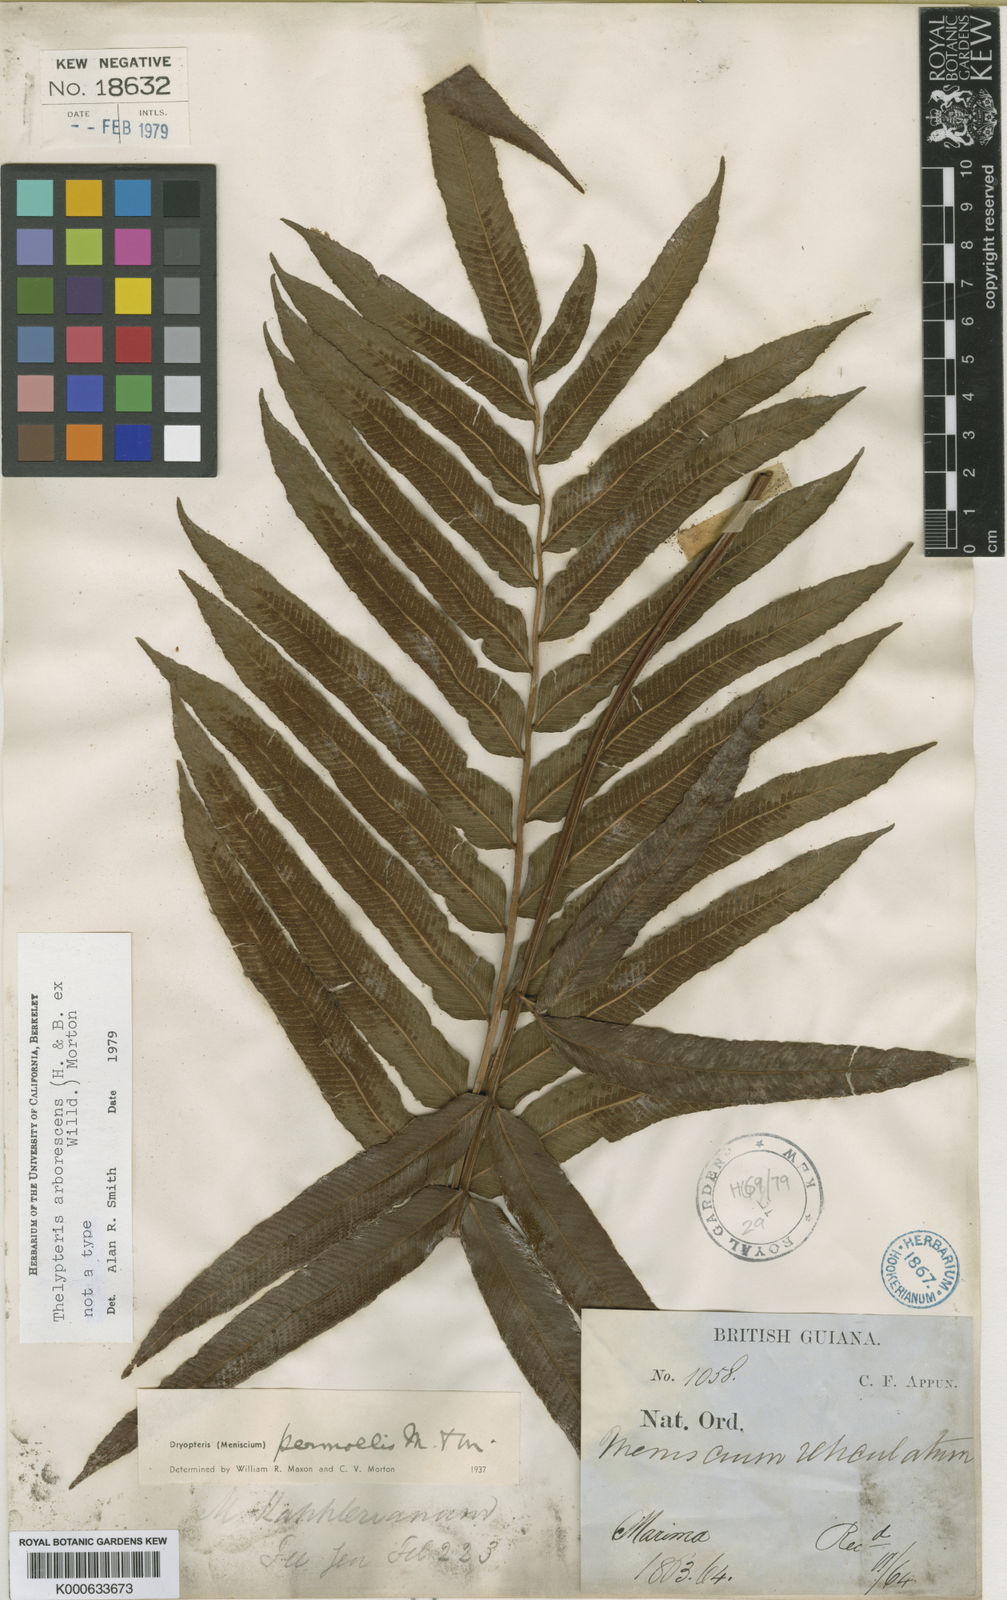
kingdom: Plantae
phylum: Tracheophyta
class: Polypodiopsida
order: Polypodiales
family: Thelypteridaceae
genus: Meniscium
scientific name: Meniscium arborescens
